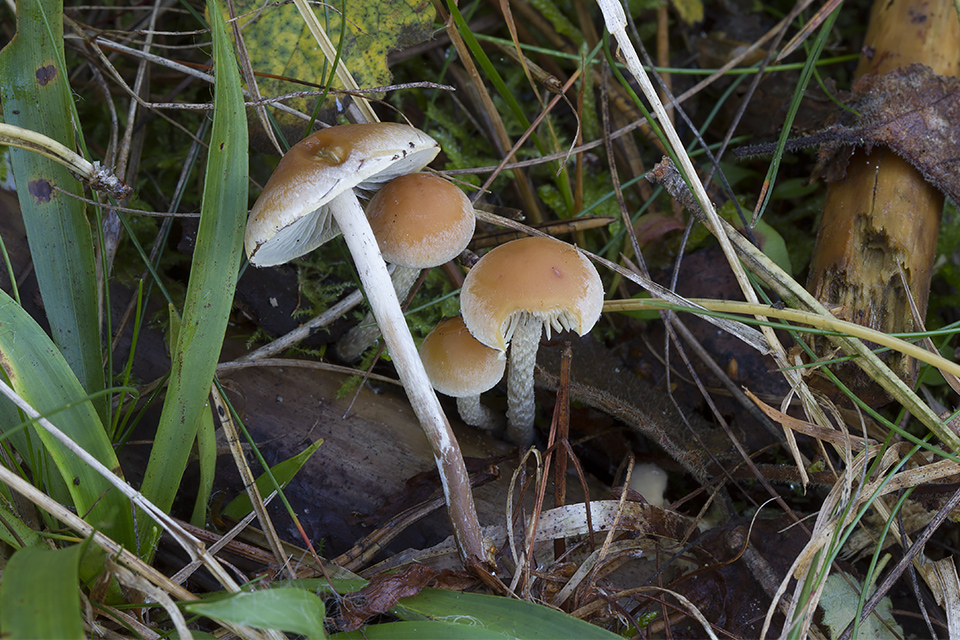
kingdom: Fungi
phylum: Basidiomycota
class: Agaricomycetes
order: Agaricales
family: Strophariaceae
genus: Hypholoma
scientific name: Hypholoma marginatum
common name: enlig svovlhat
